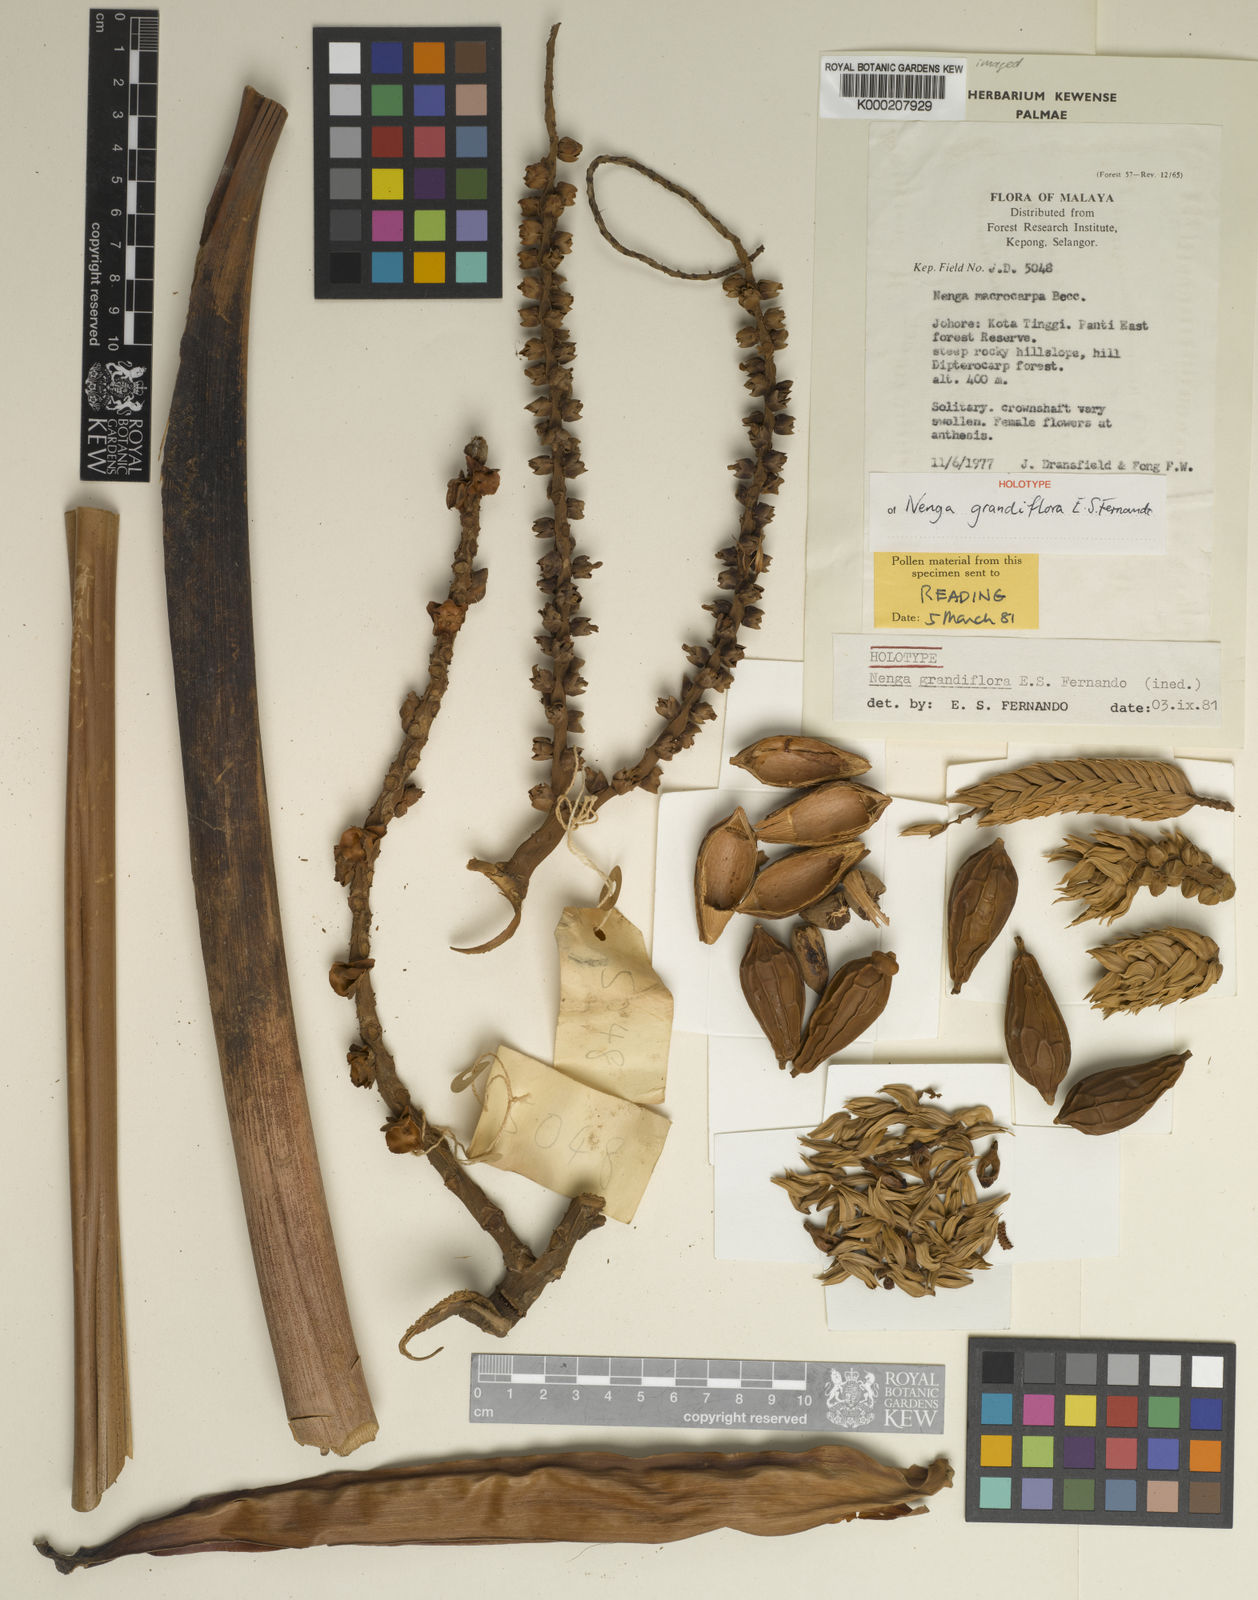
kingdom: Plantae
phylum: Tracheophyta
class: Liliopsida
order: Arecales
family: Arecaceae
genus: Nenga
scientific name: Nenga grandiflora
